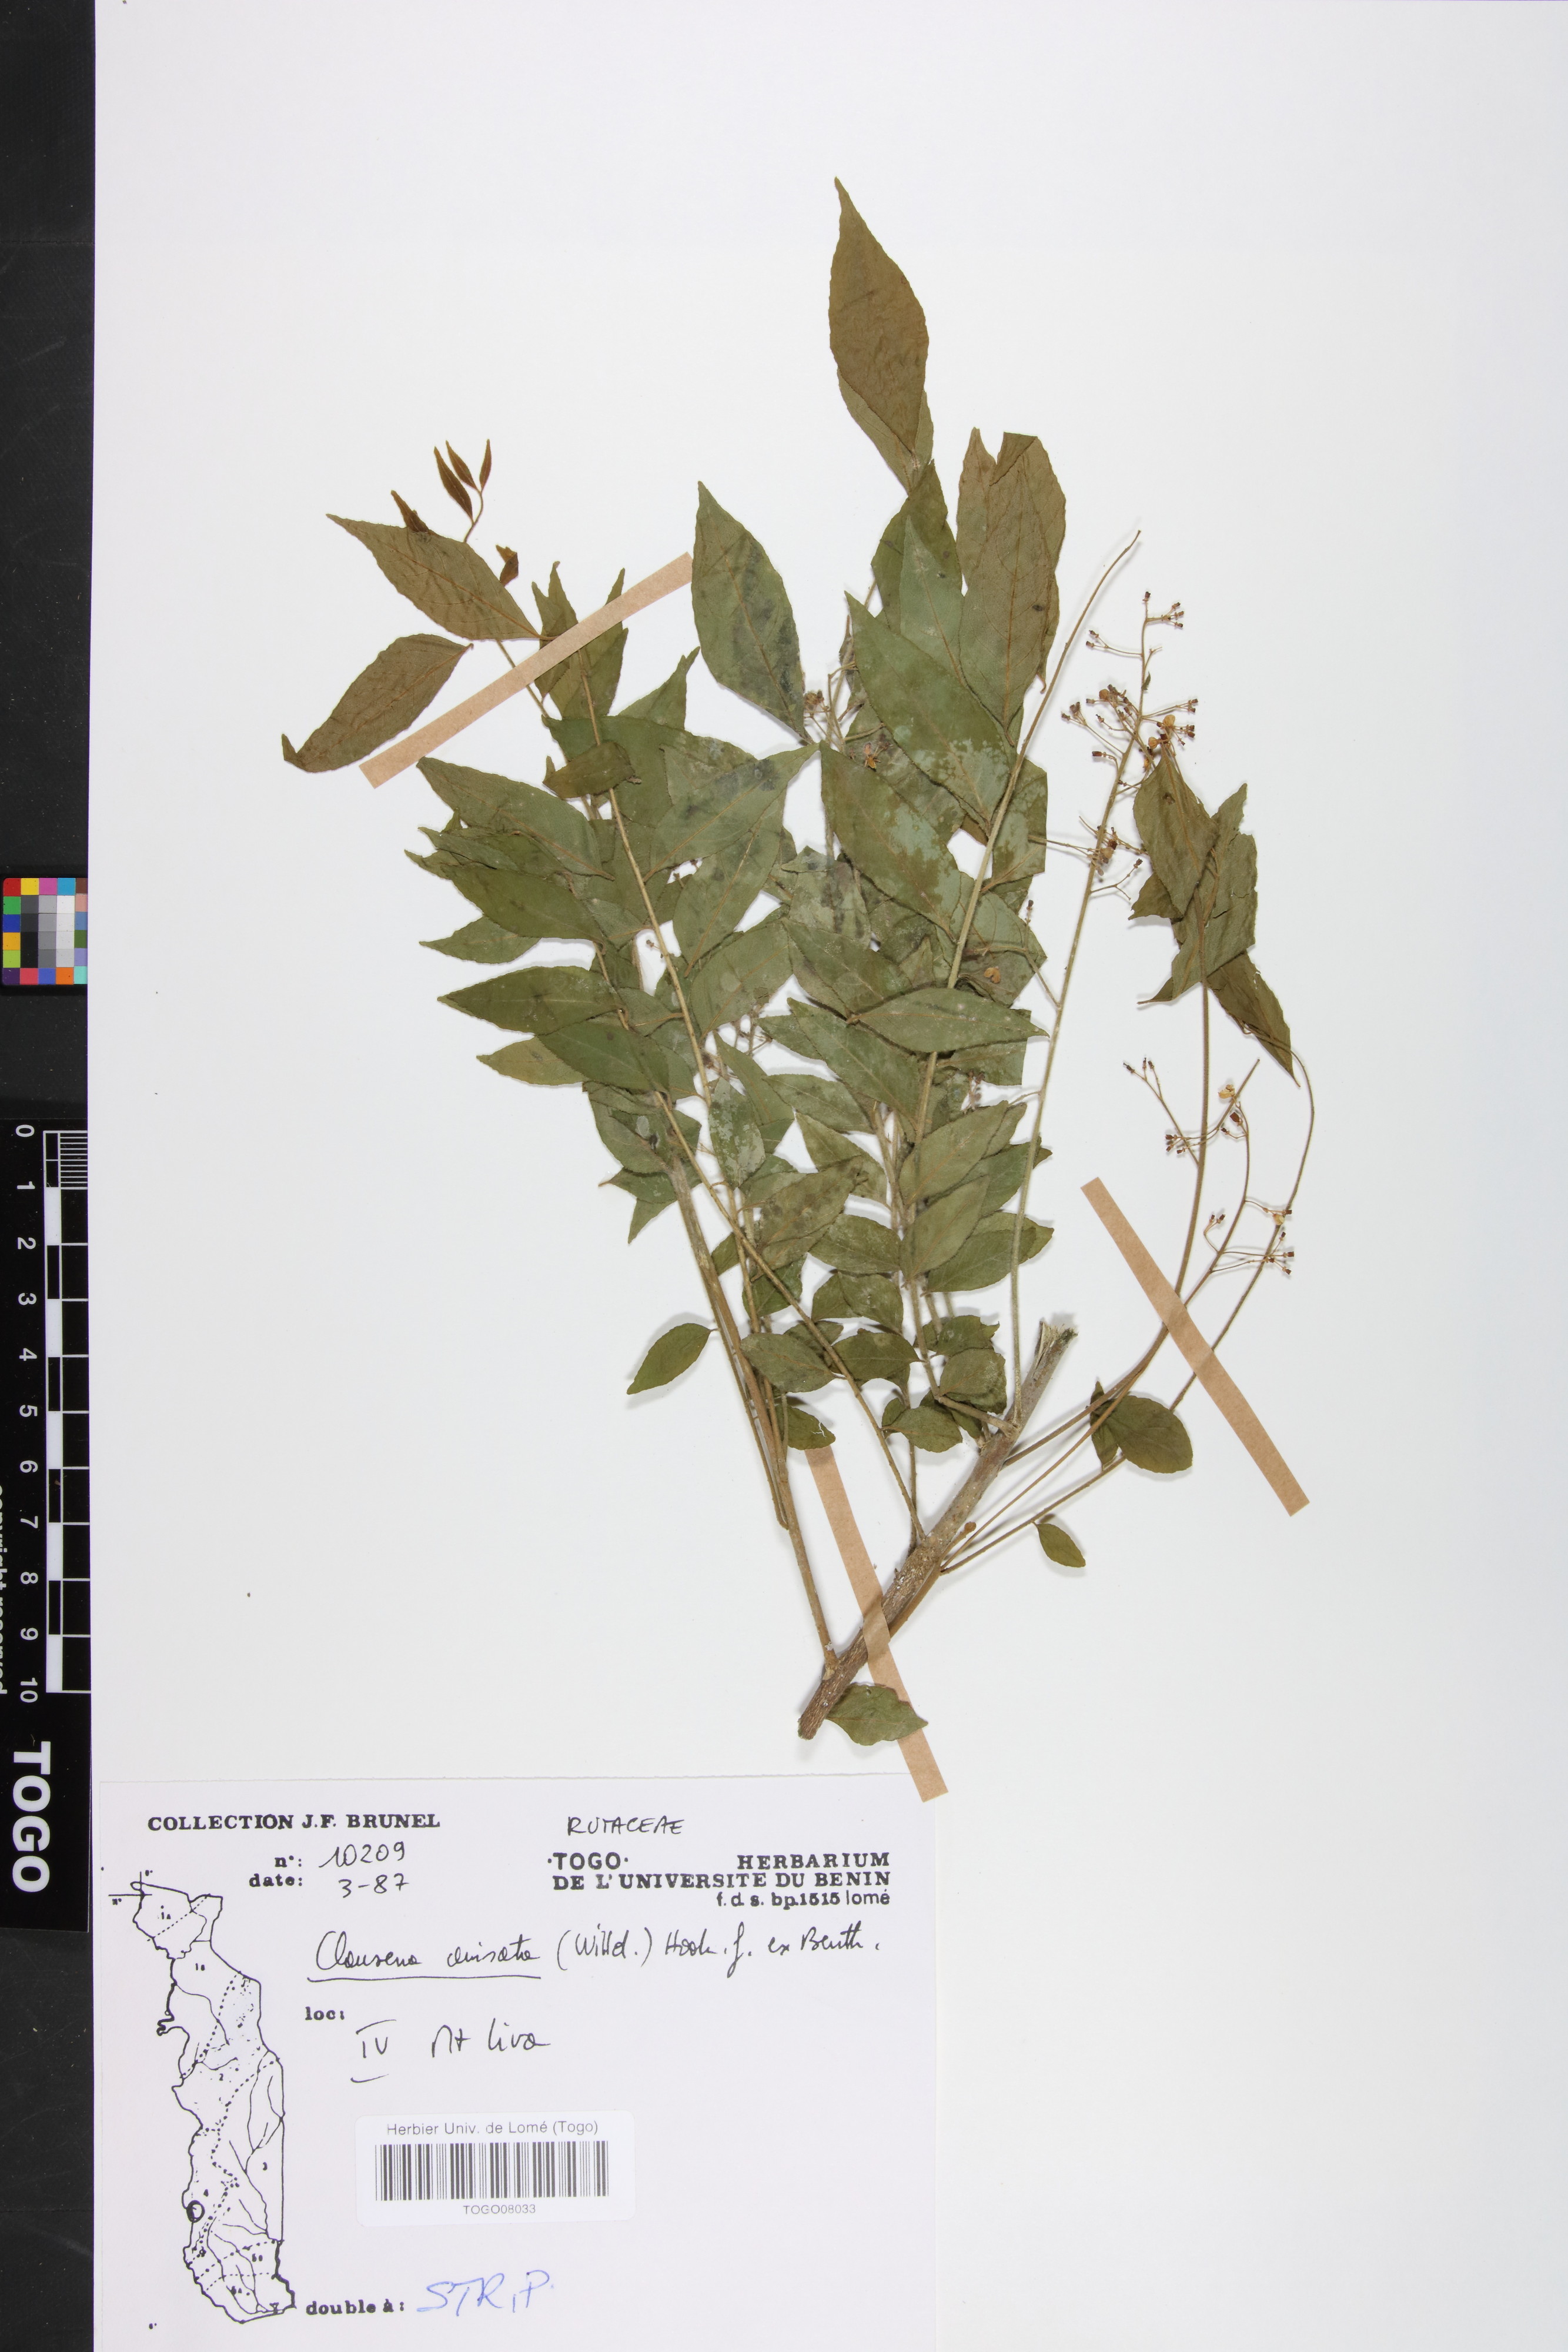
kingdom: Plantae
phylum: Tracheophyta
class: Magnoliopsida
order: Sapindales
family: Rutaceae
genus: Clausena
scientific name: Clausena anisata
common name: Horsewood
